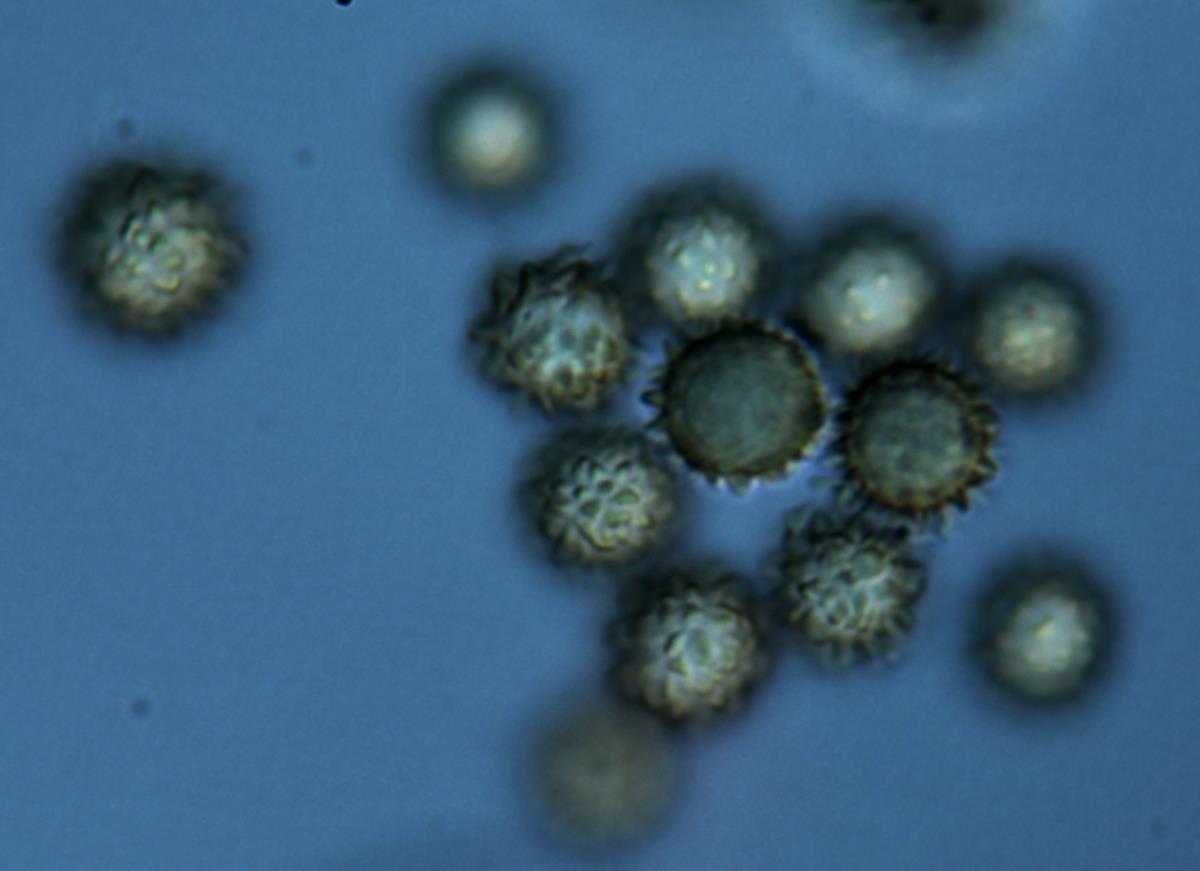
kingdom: Fungi
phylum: Basidiomycota
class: Agaricomycetes
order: Boletales
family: Sclerodermataceae
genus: Pisolithus
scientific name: Pisolithus
